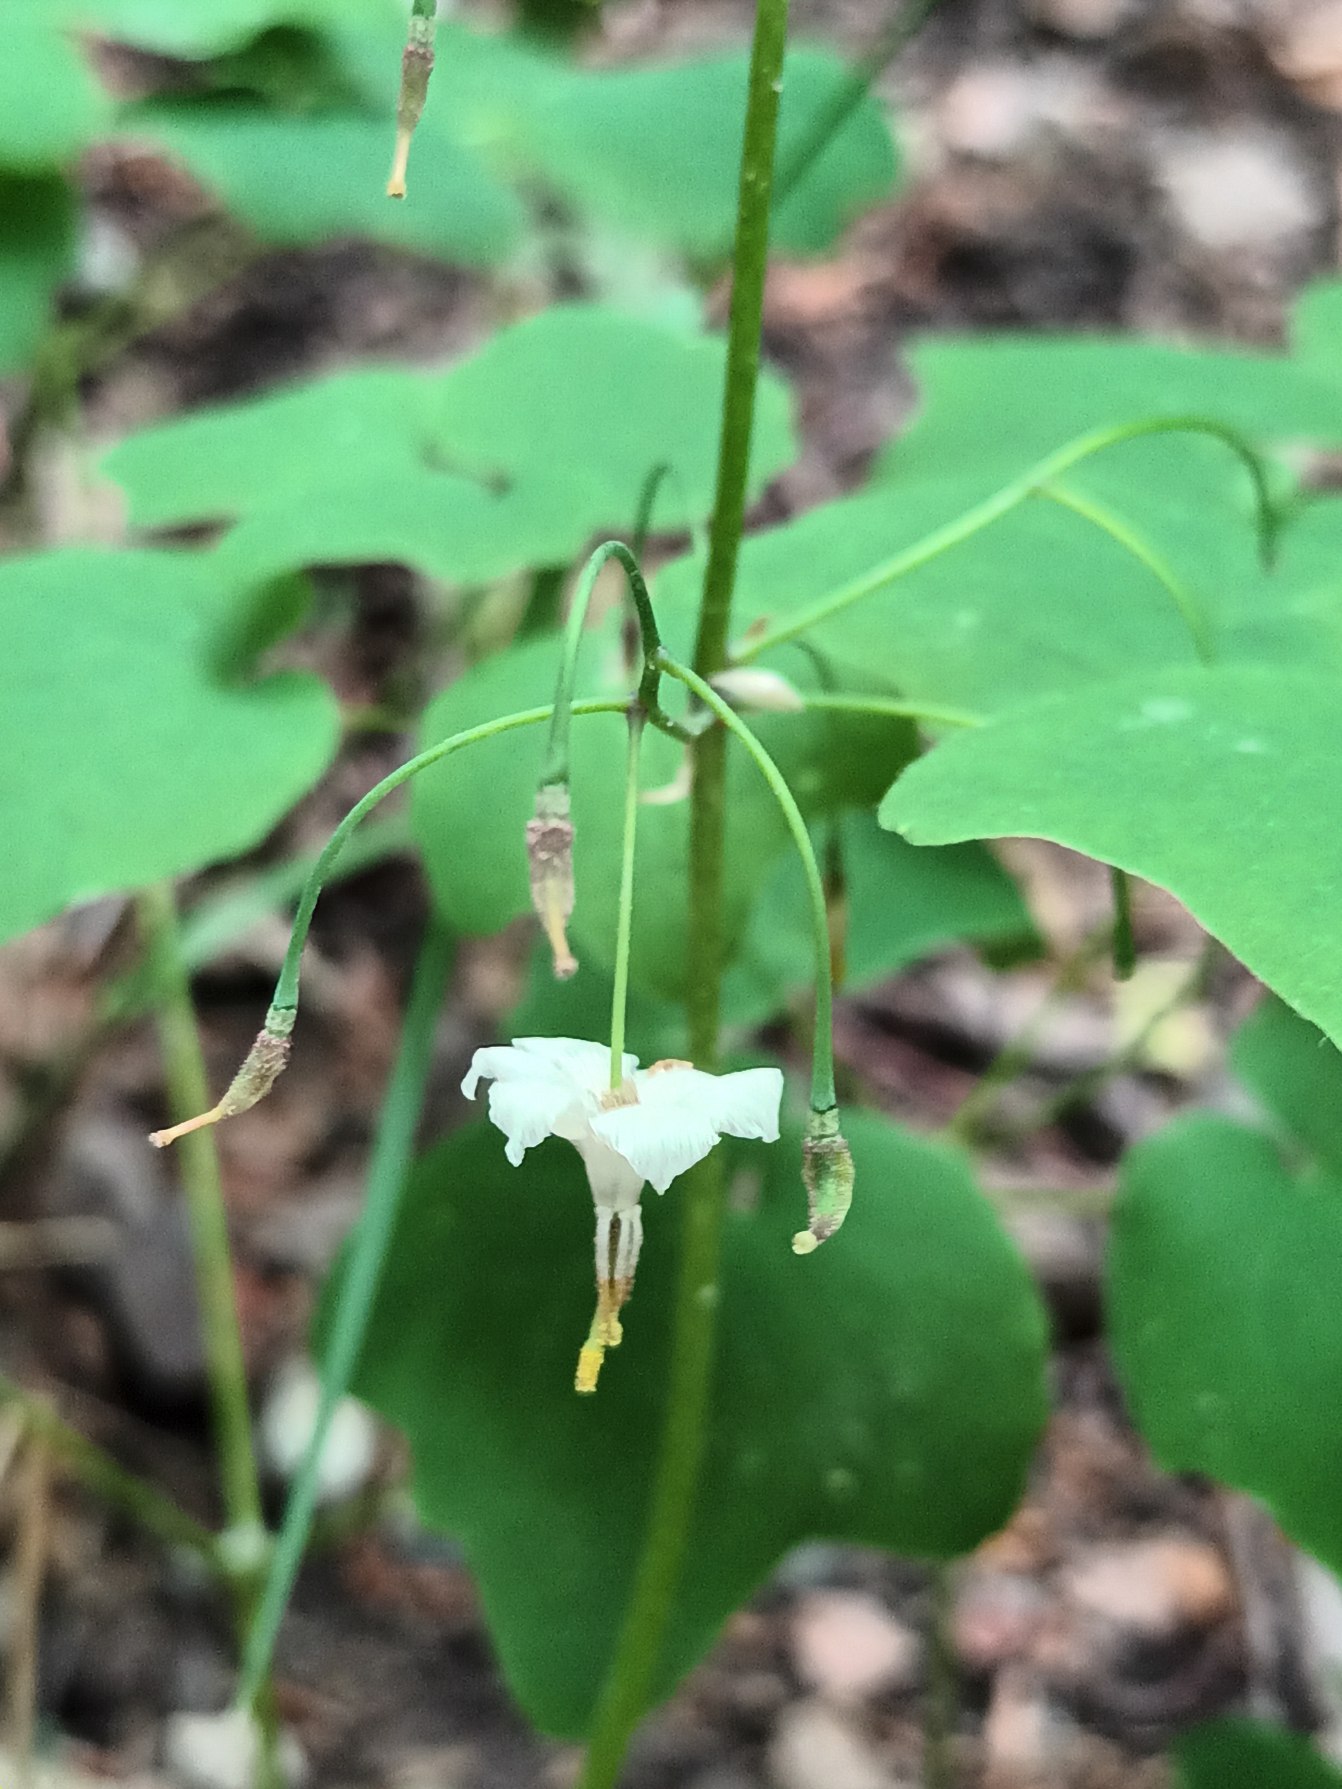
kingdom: Plantae
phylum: Tracheophyta
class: Magnoliopsida
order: Ranunculales
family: Berberidaceae
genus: Vancouveria
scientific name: Vancouveria hexandra
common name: Amerikansk bispehue
